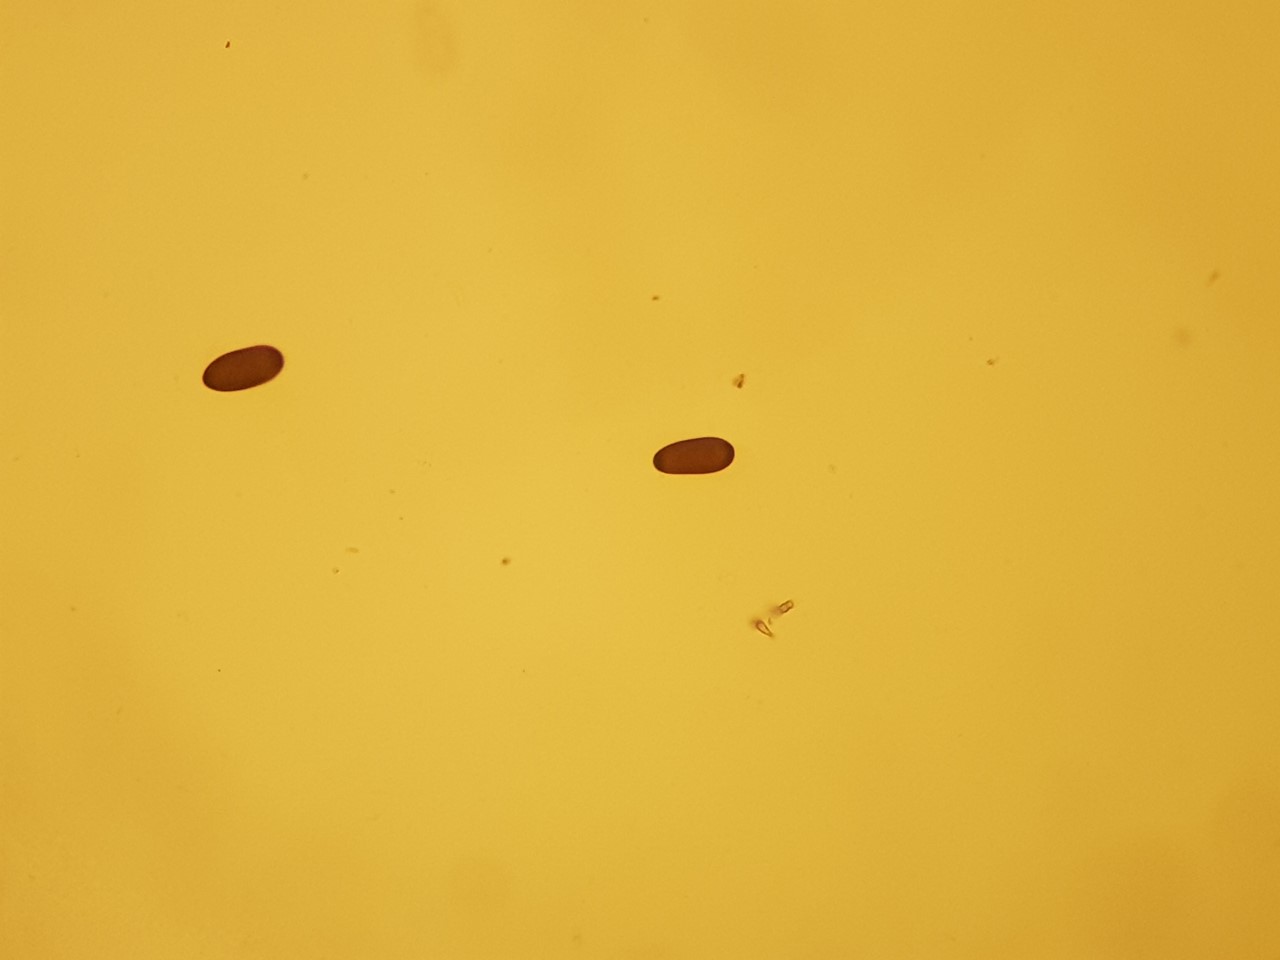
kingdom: Fungi
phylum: Ascomycota
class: Dothideomycetes
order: Botryosphaeriales
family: Botryosphaeriaceae
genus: Sphaeropsis
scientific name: Sphaeropsis sapinea
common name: Sphaeropsis blight
